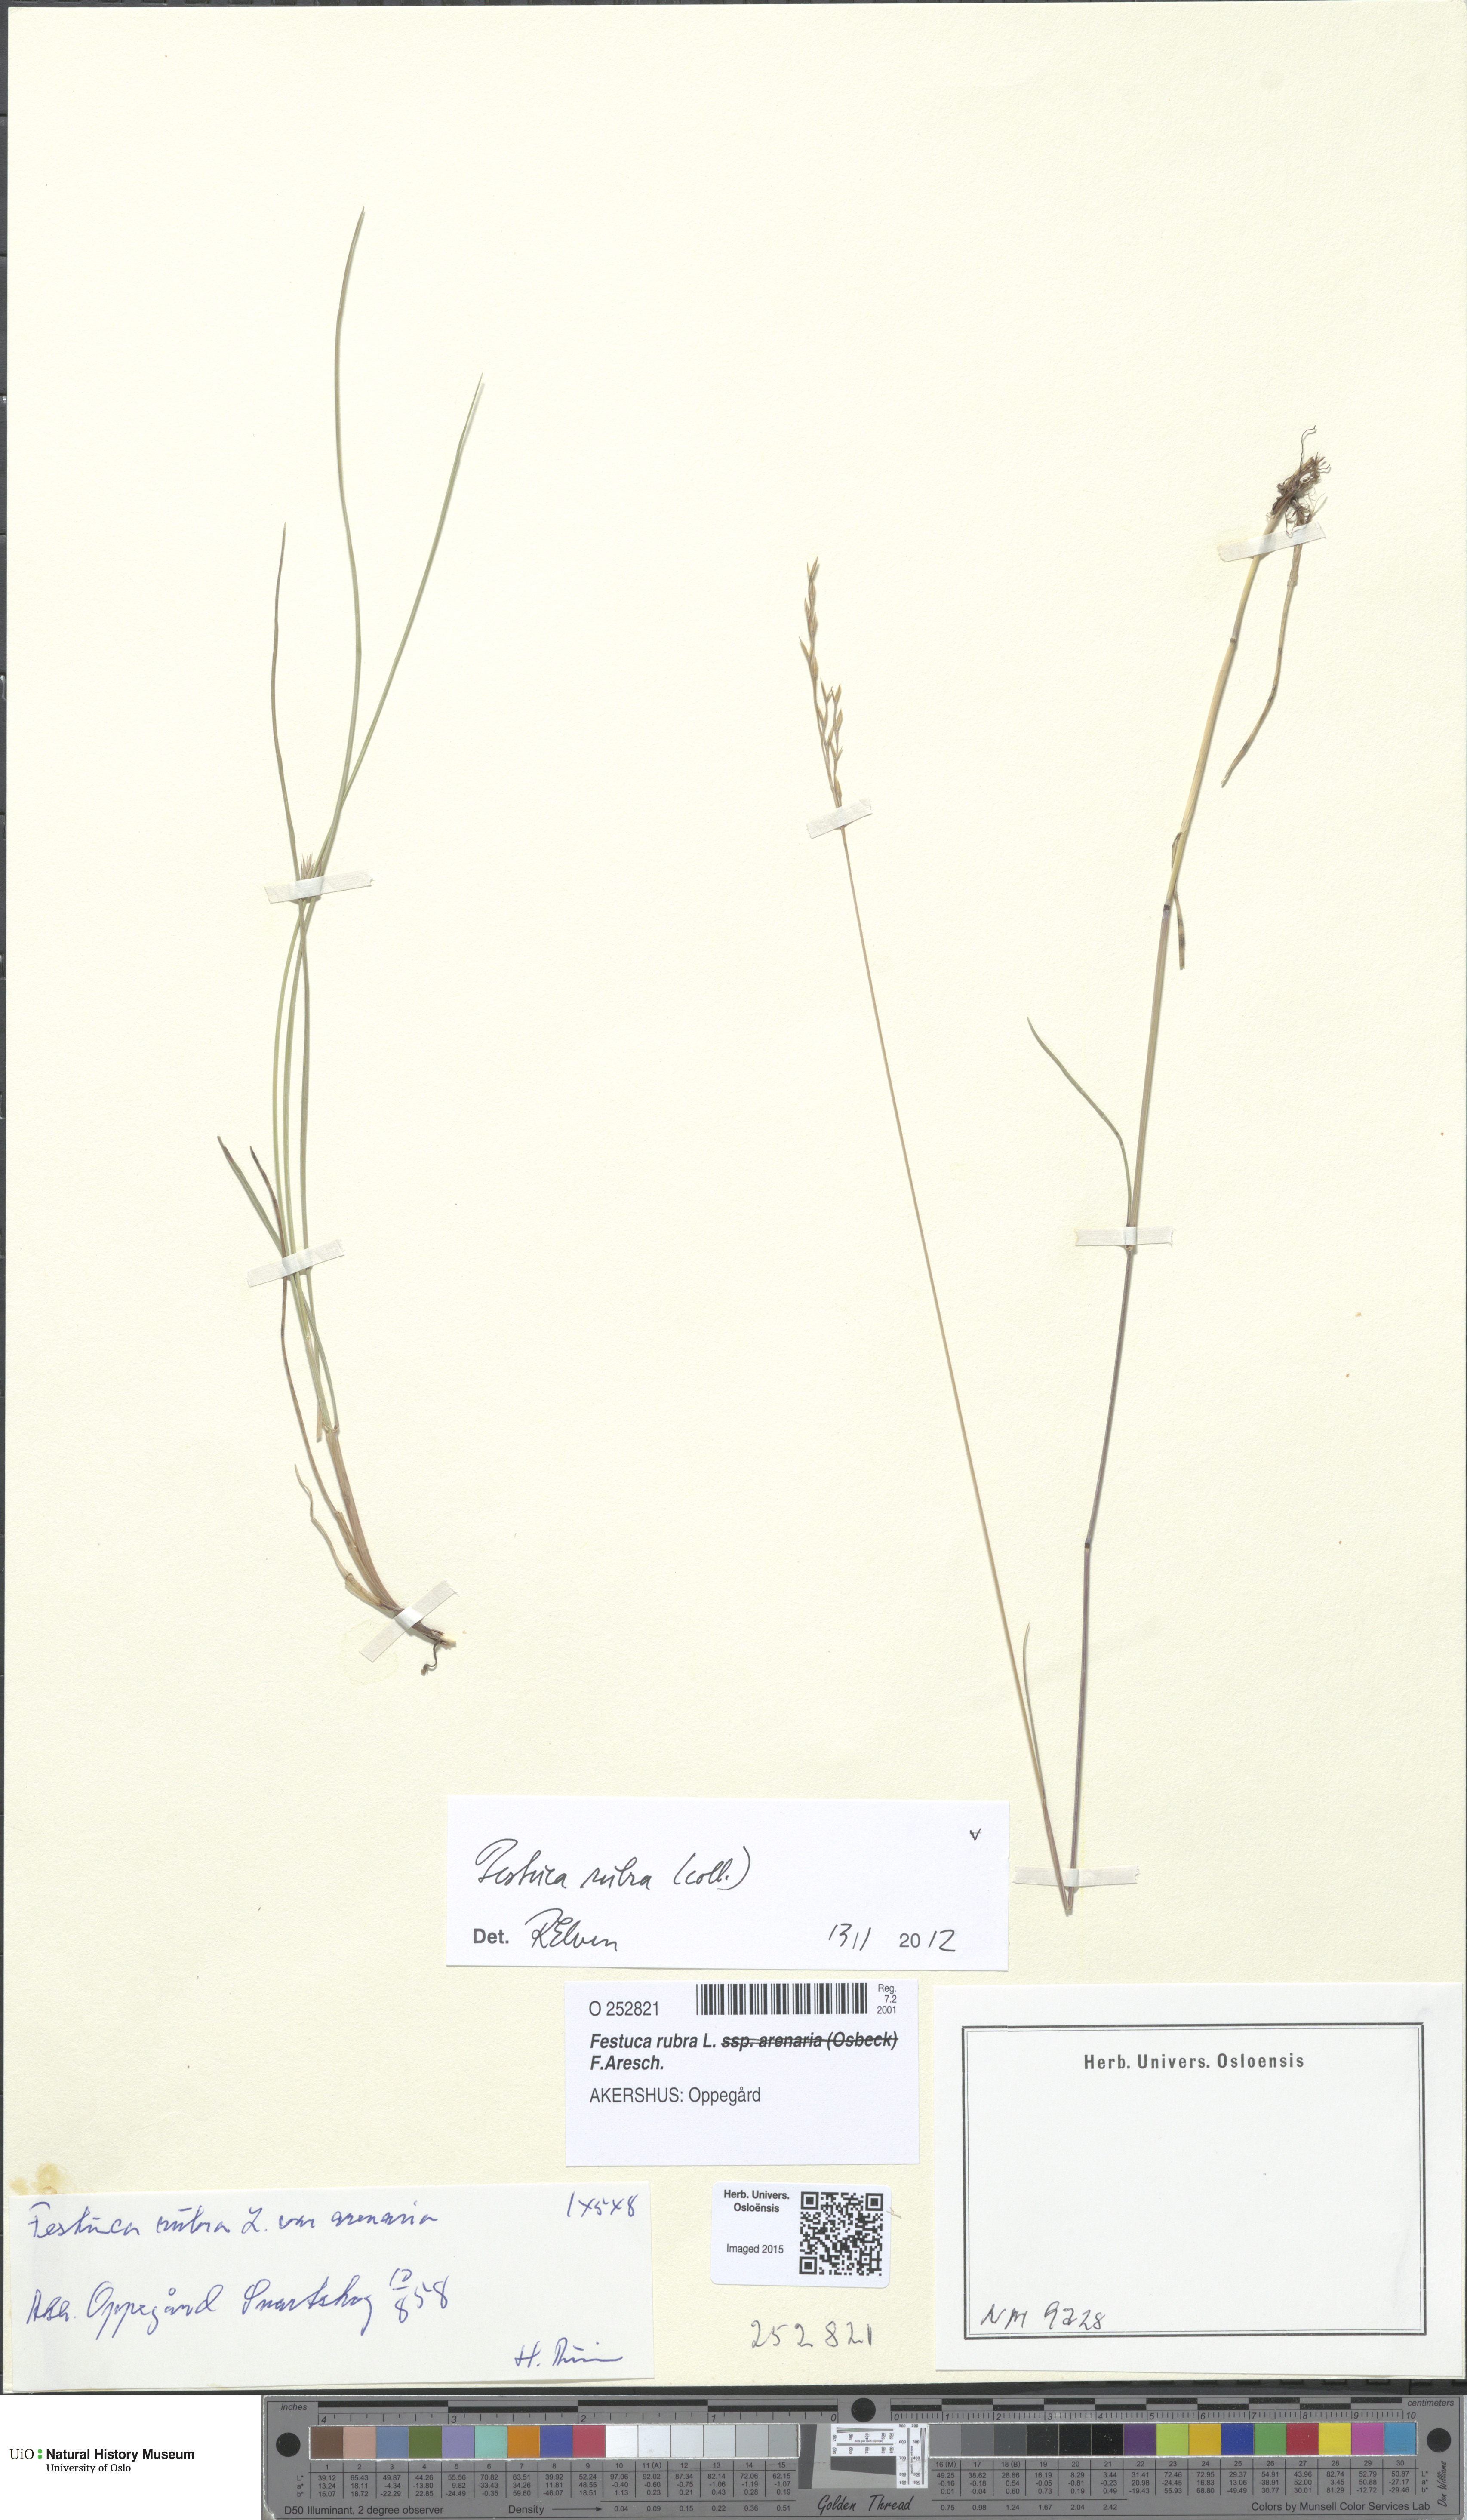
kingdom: Plantae
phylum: Tracheophyta
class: Liliopsida
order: Poales
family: Poaceae
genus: Festuca
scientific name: Festuca rubra
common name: Red fescue
